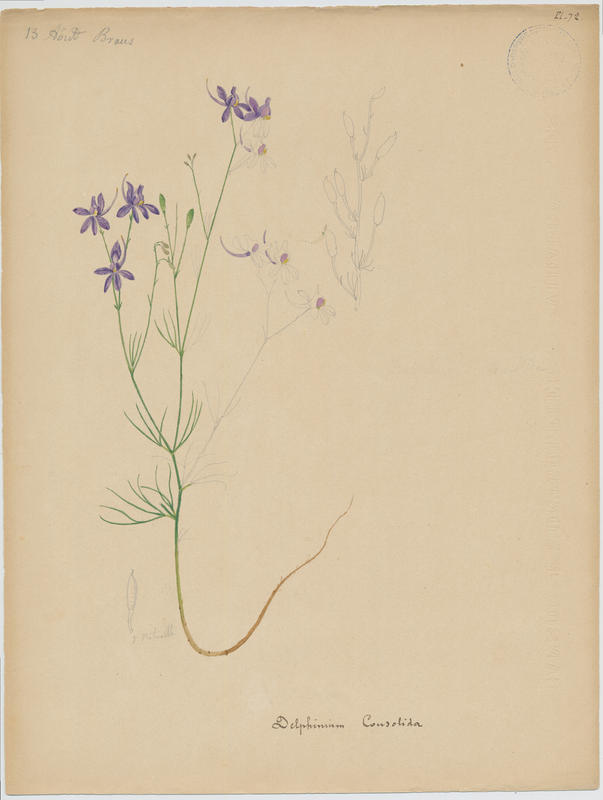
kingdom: Plantae
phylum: Tracheophyta
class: Magnoliopsida
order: Ranunculales
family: Ranunculaceae
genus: Delphinium
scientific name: Delphinium consolida
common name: Branching larkspur
